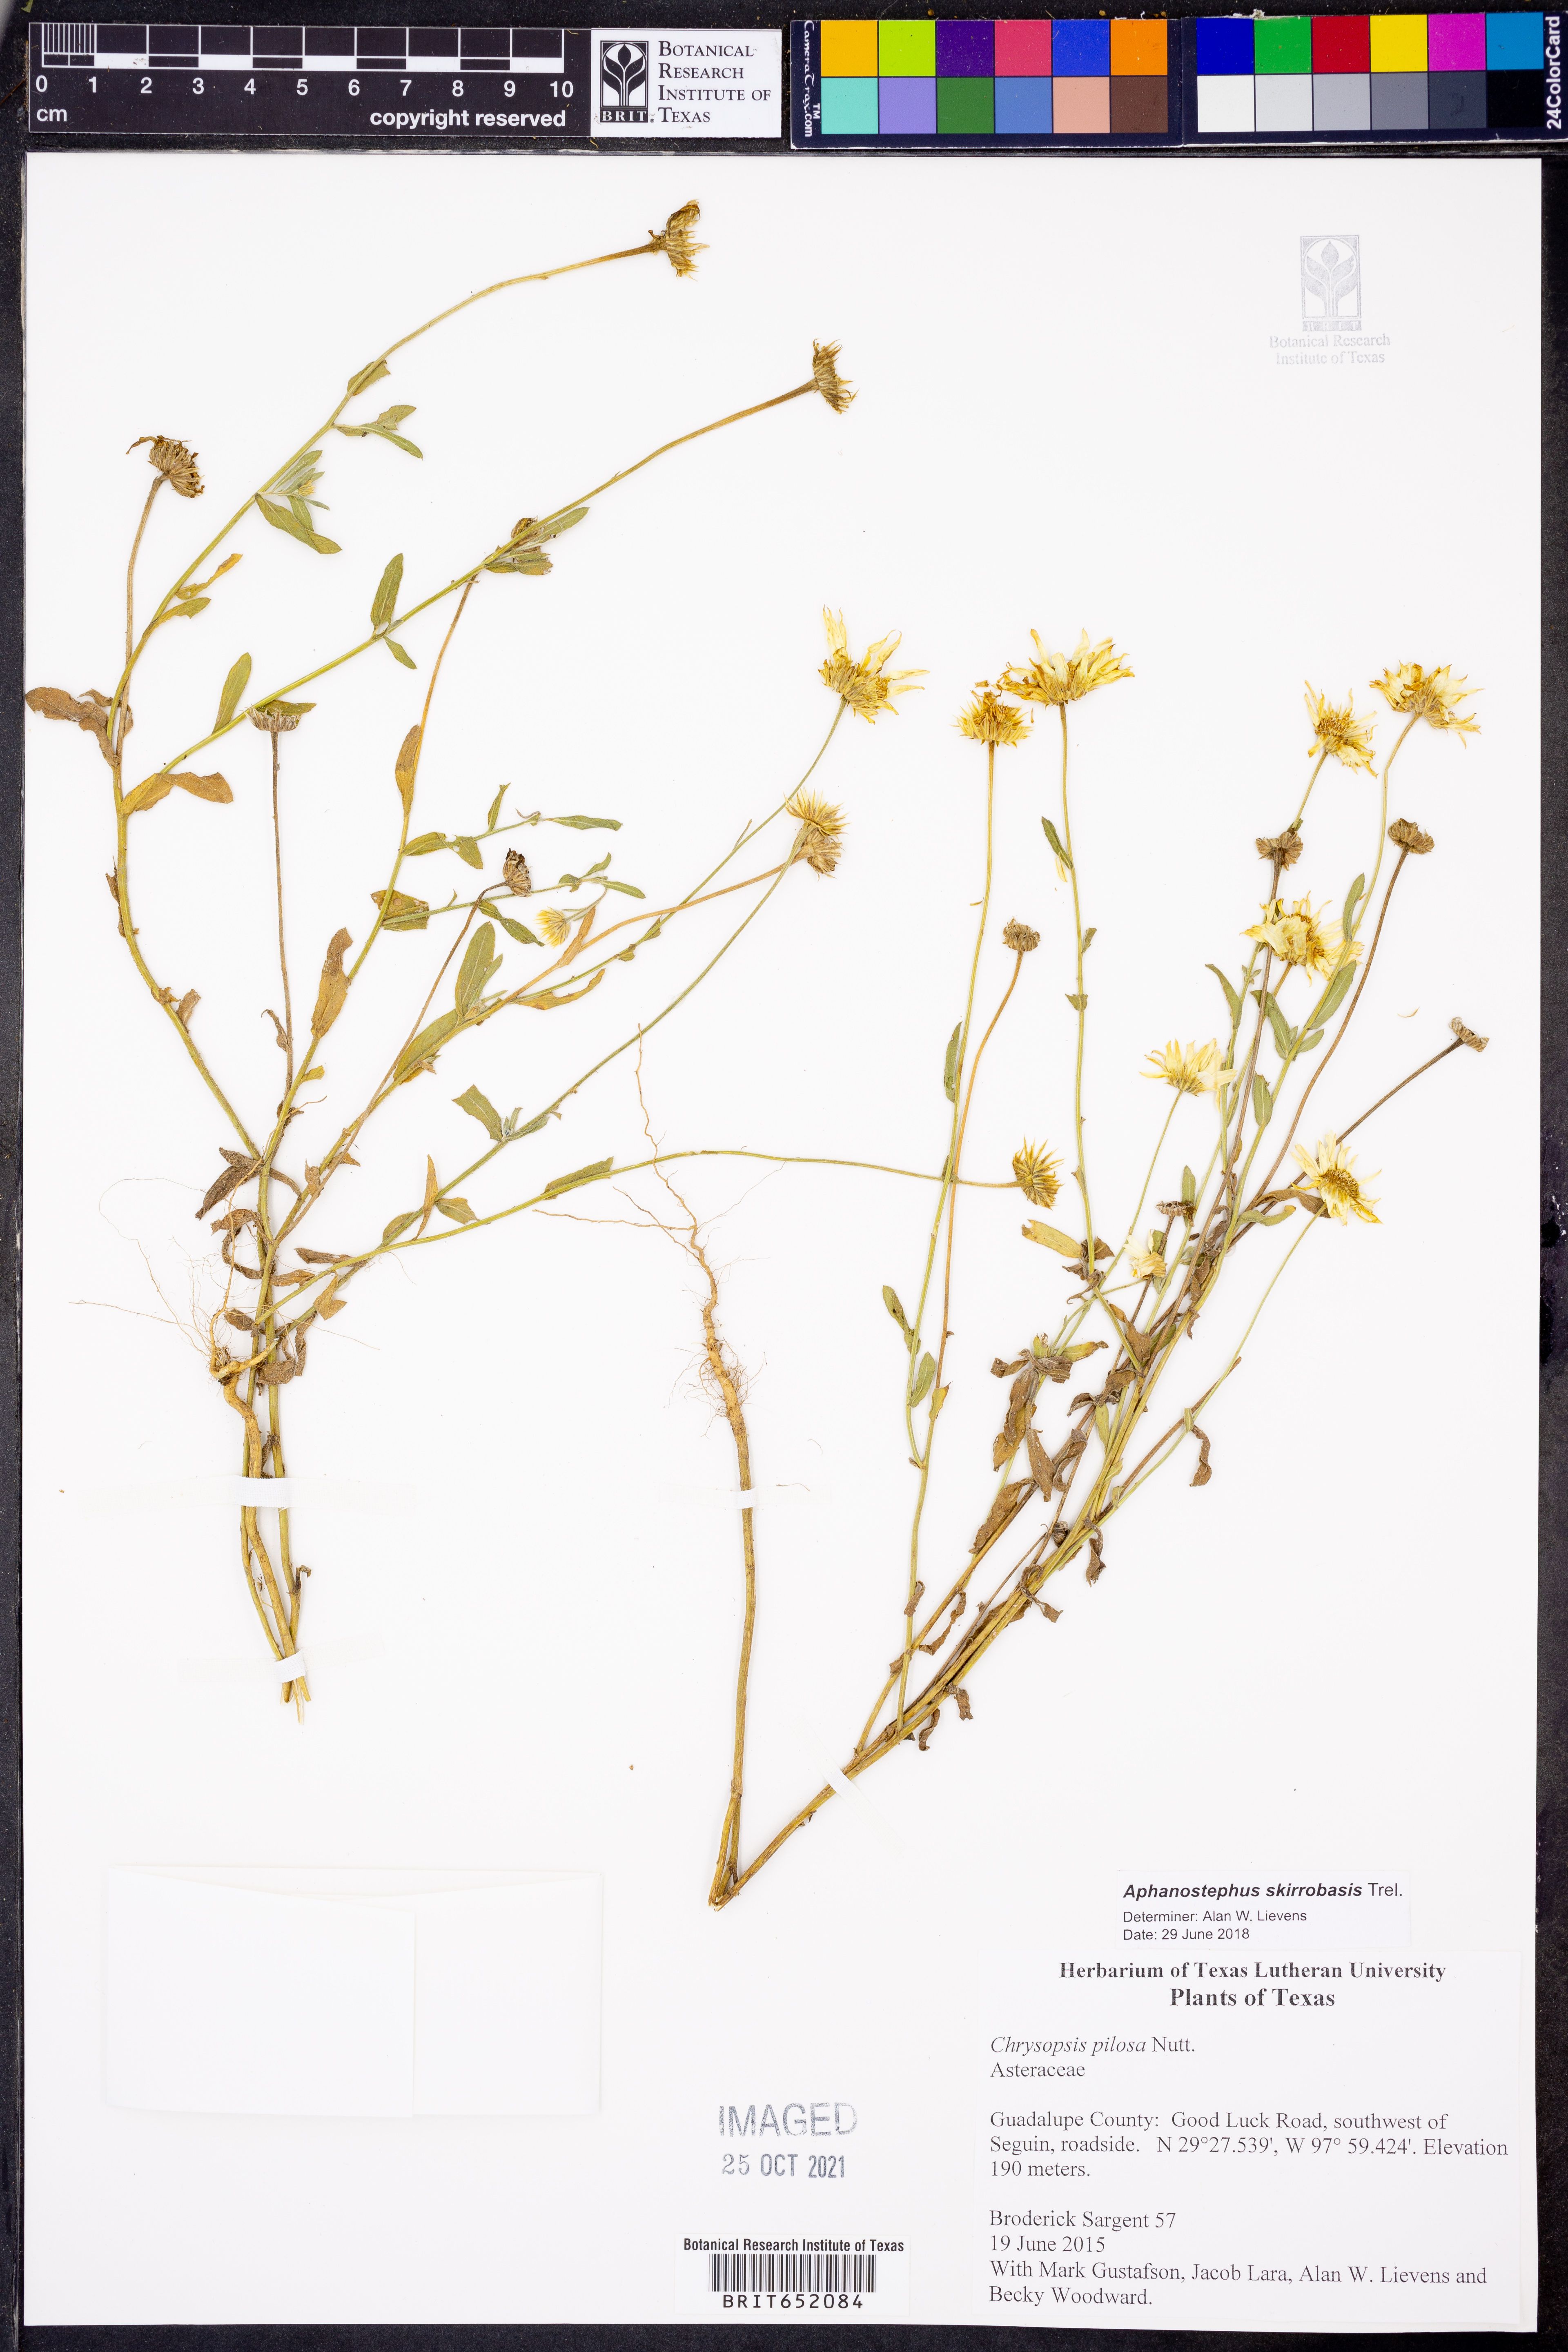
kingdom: Plantae
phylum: Tracheophyta
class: Magnoliopsida
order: Asterales
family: Asteraceae
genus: Aphanostephus
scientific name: Aphanostephus skirrhobasis
